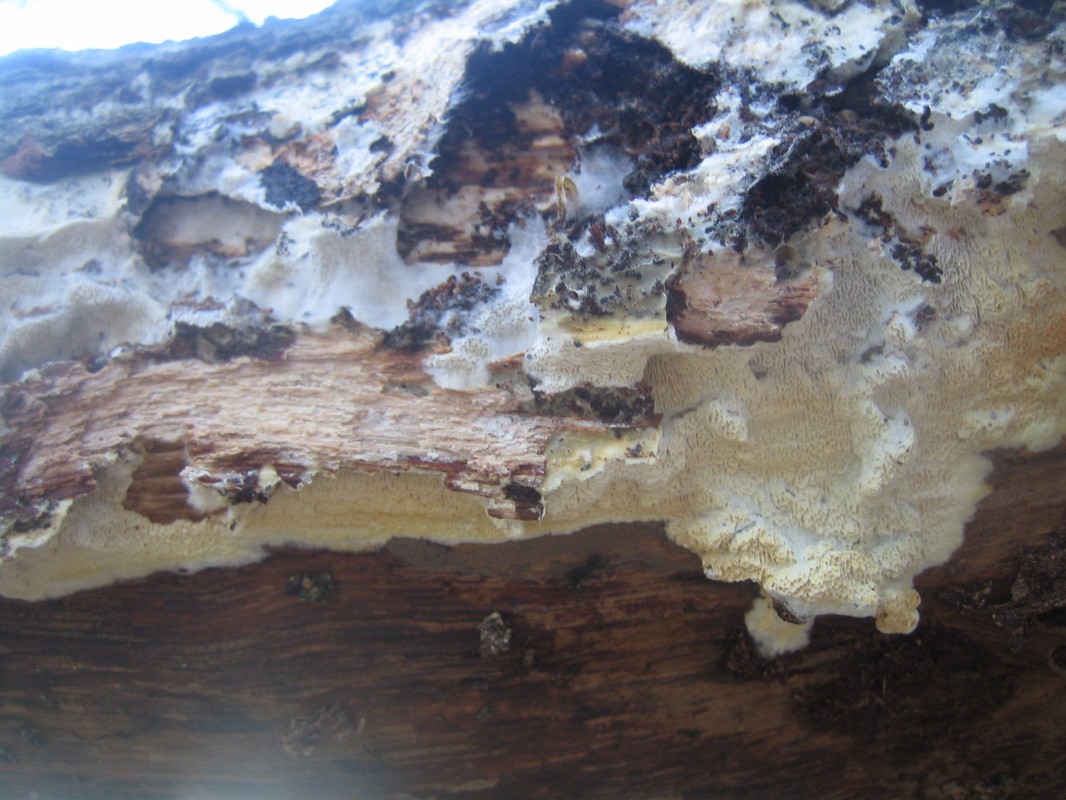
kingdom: Fungi
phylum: Basidiomycota
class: Agaricomycetes
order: Polyporales
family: Polyporaceae
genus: Podofomes
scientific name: Podofomes mollis
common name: blød begporesvamp
